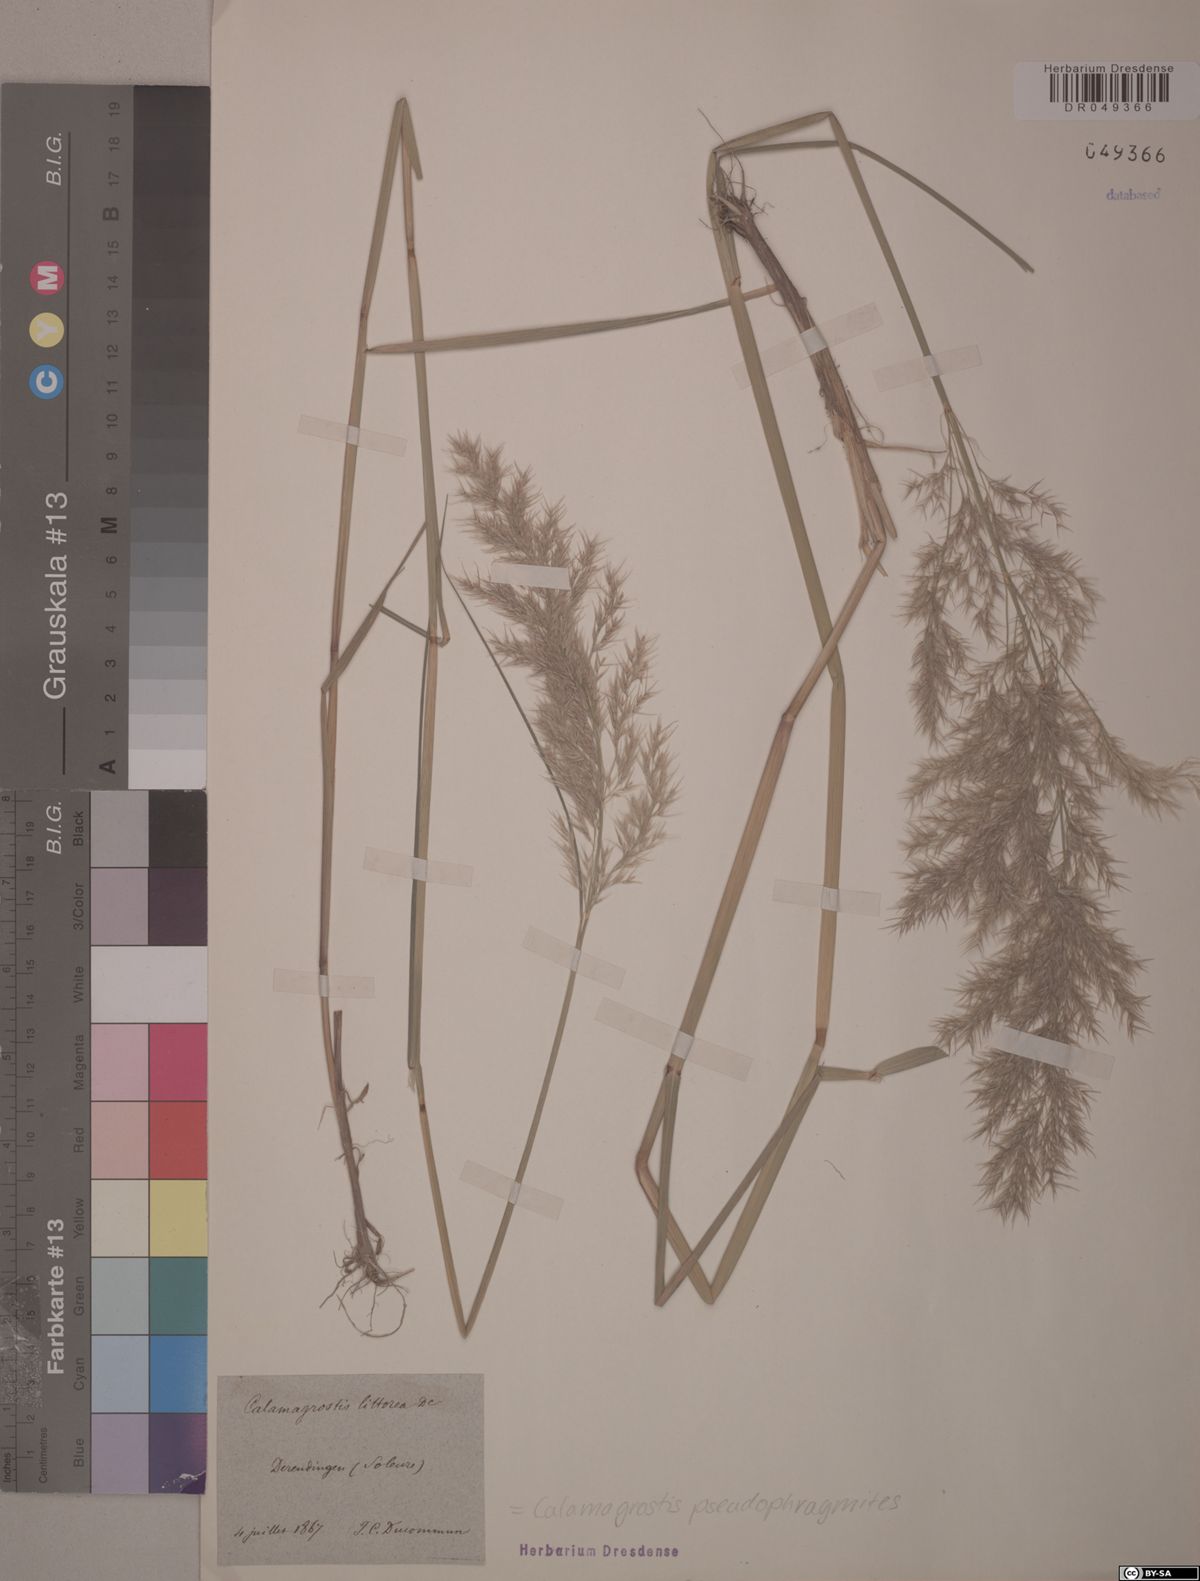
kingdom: Plantae
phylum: Tracheophyta
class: Liliopsida
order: Poales
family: Poaceae
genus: Calamagrostis
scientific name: Calamagrostis pseudophragmites
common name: Coastal small-reed
